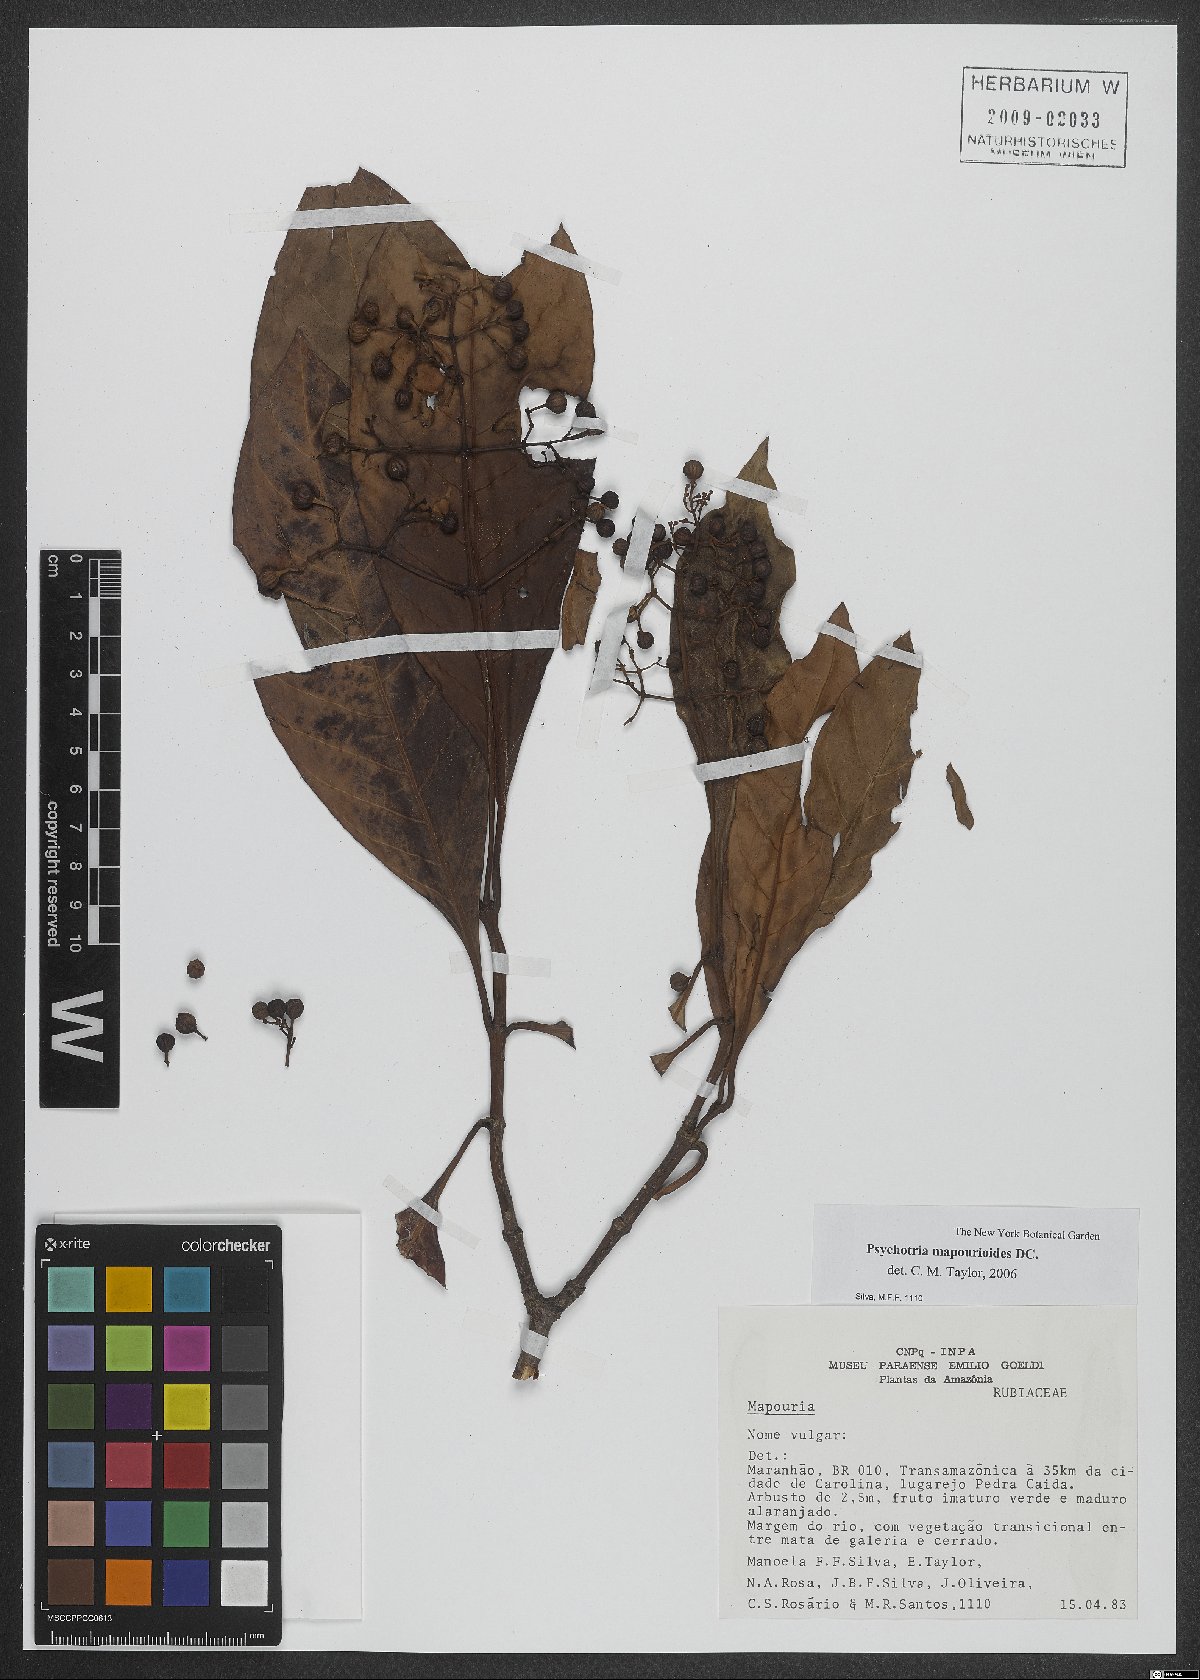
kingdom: Plantae
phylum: Tracheophyta
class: Magnoliopsida
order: Gentianales
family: Rubiaceae
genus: Psychotria
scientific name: Psychotria pedunculosa
